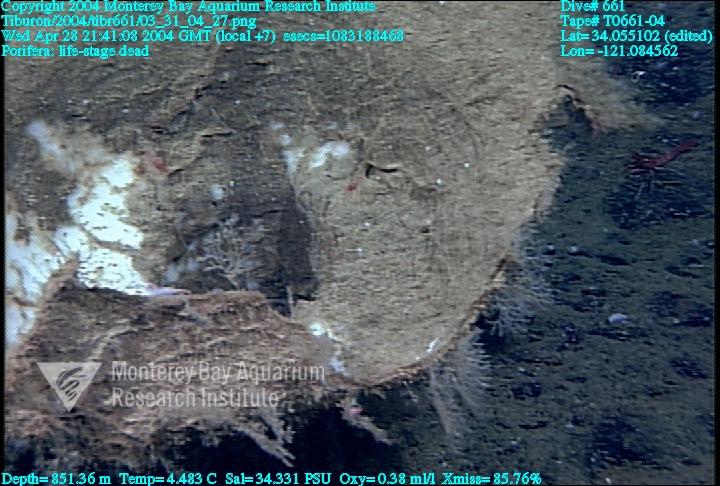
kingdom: Animalia
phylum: Porifera
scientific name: Porifera
